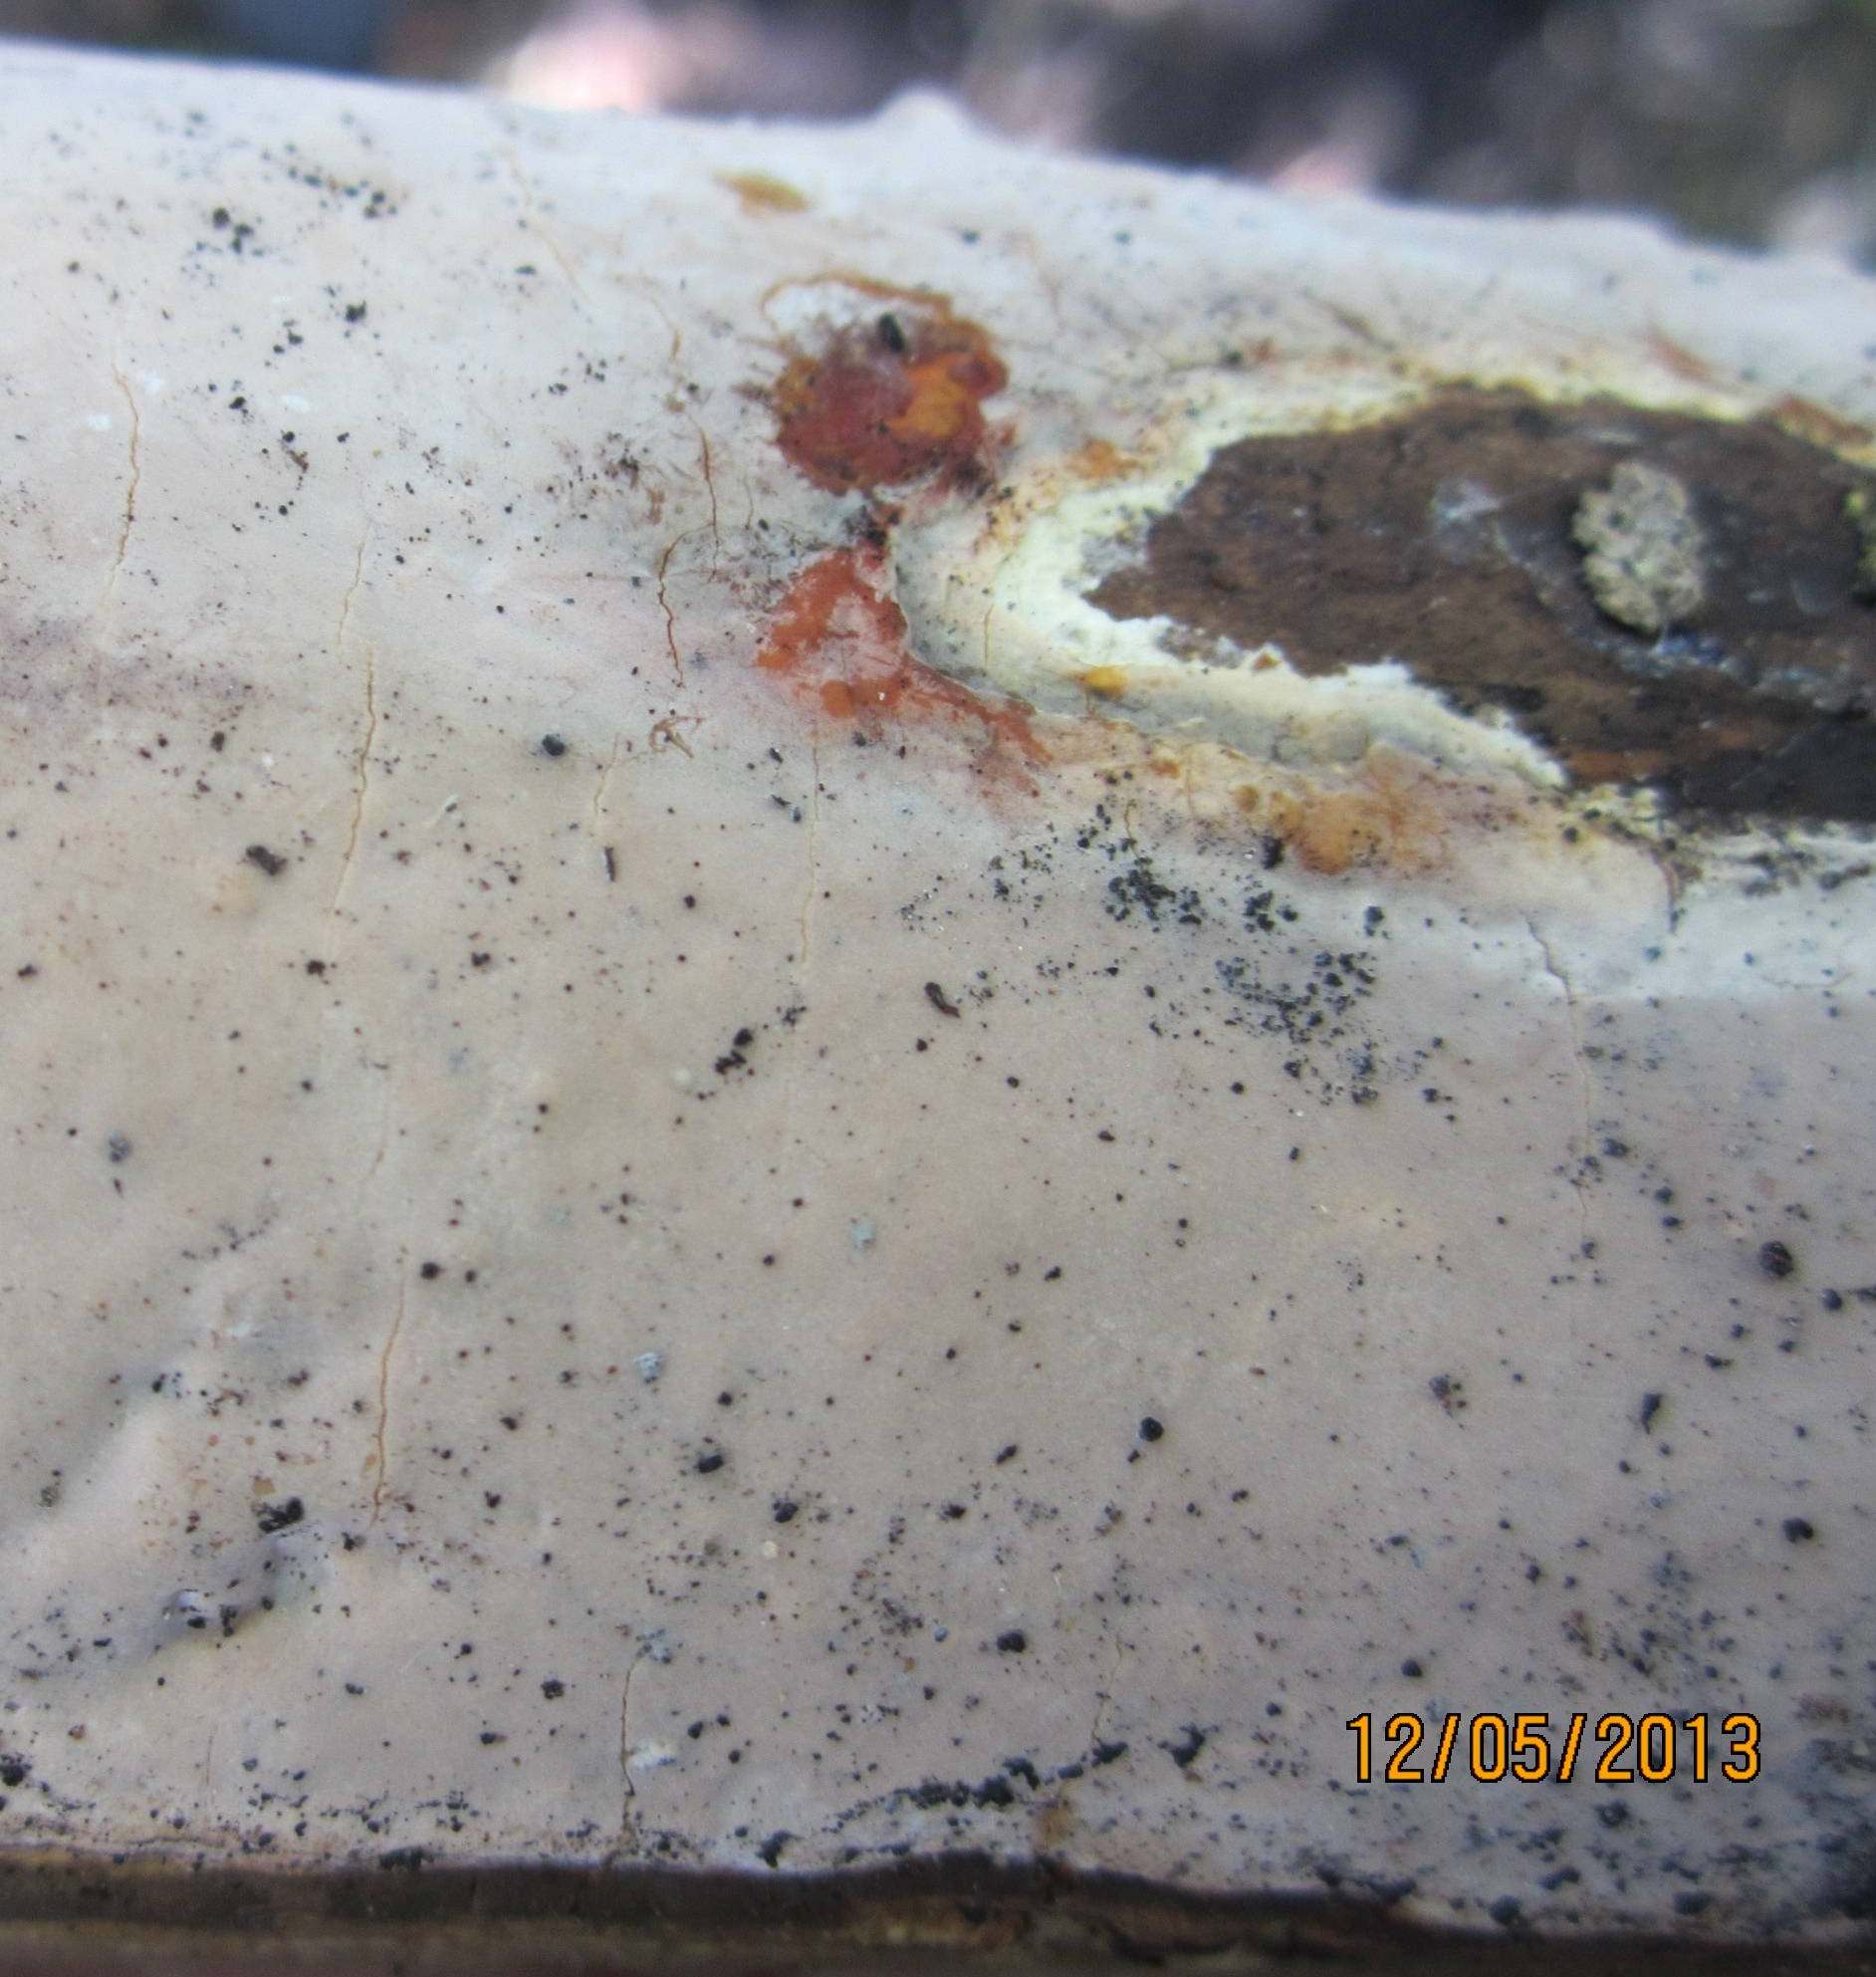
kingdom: Fungi
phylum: Basidiomycota
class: Agaricomycetes
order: Russulales
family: Peniophoraceae
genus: Scytinostroma
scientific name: Scytinostroma hemidichophyticum
